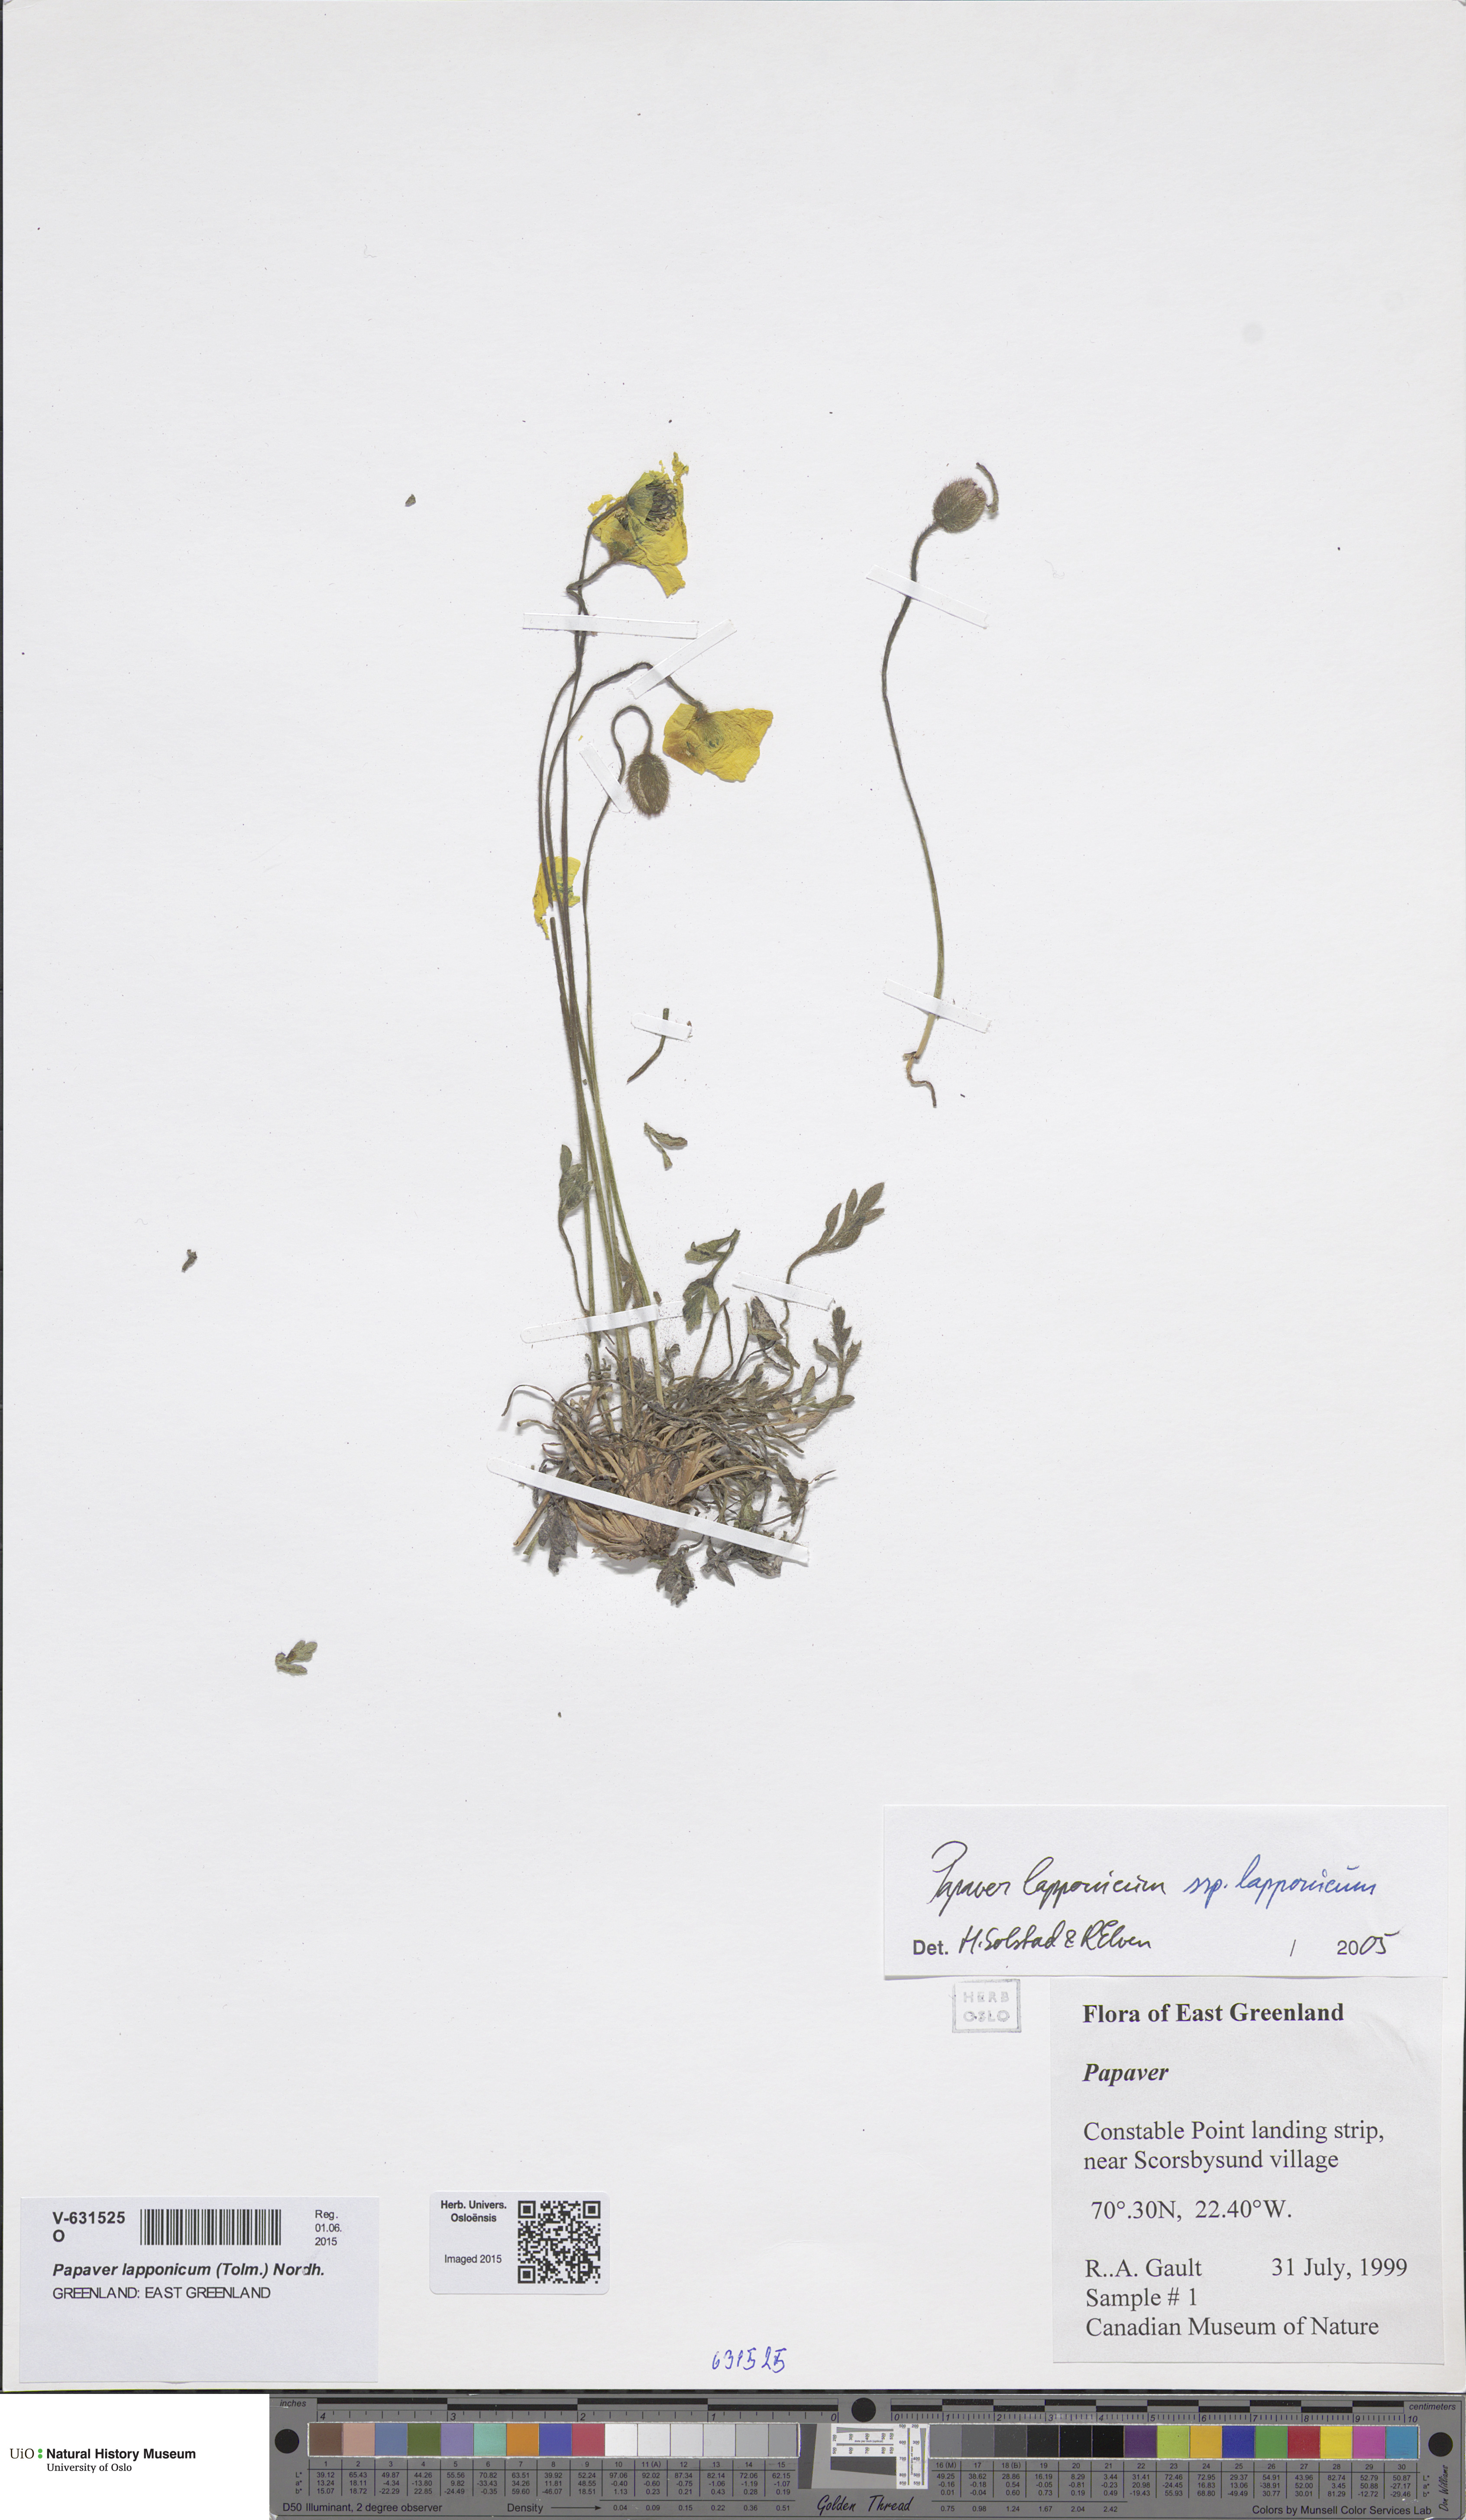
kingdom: Plantae
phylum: Tracheophyta
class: Magnoliopsida
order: Ranunculales
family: Papaveraceae
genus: Papaver
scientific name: Papaver lapponicum
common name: Lapland poppy
